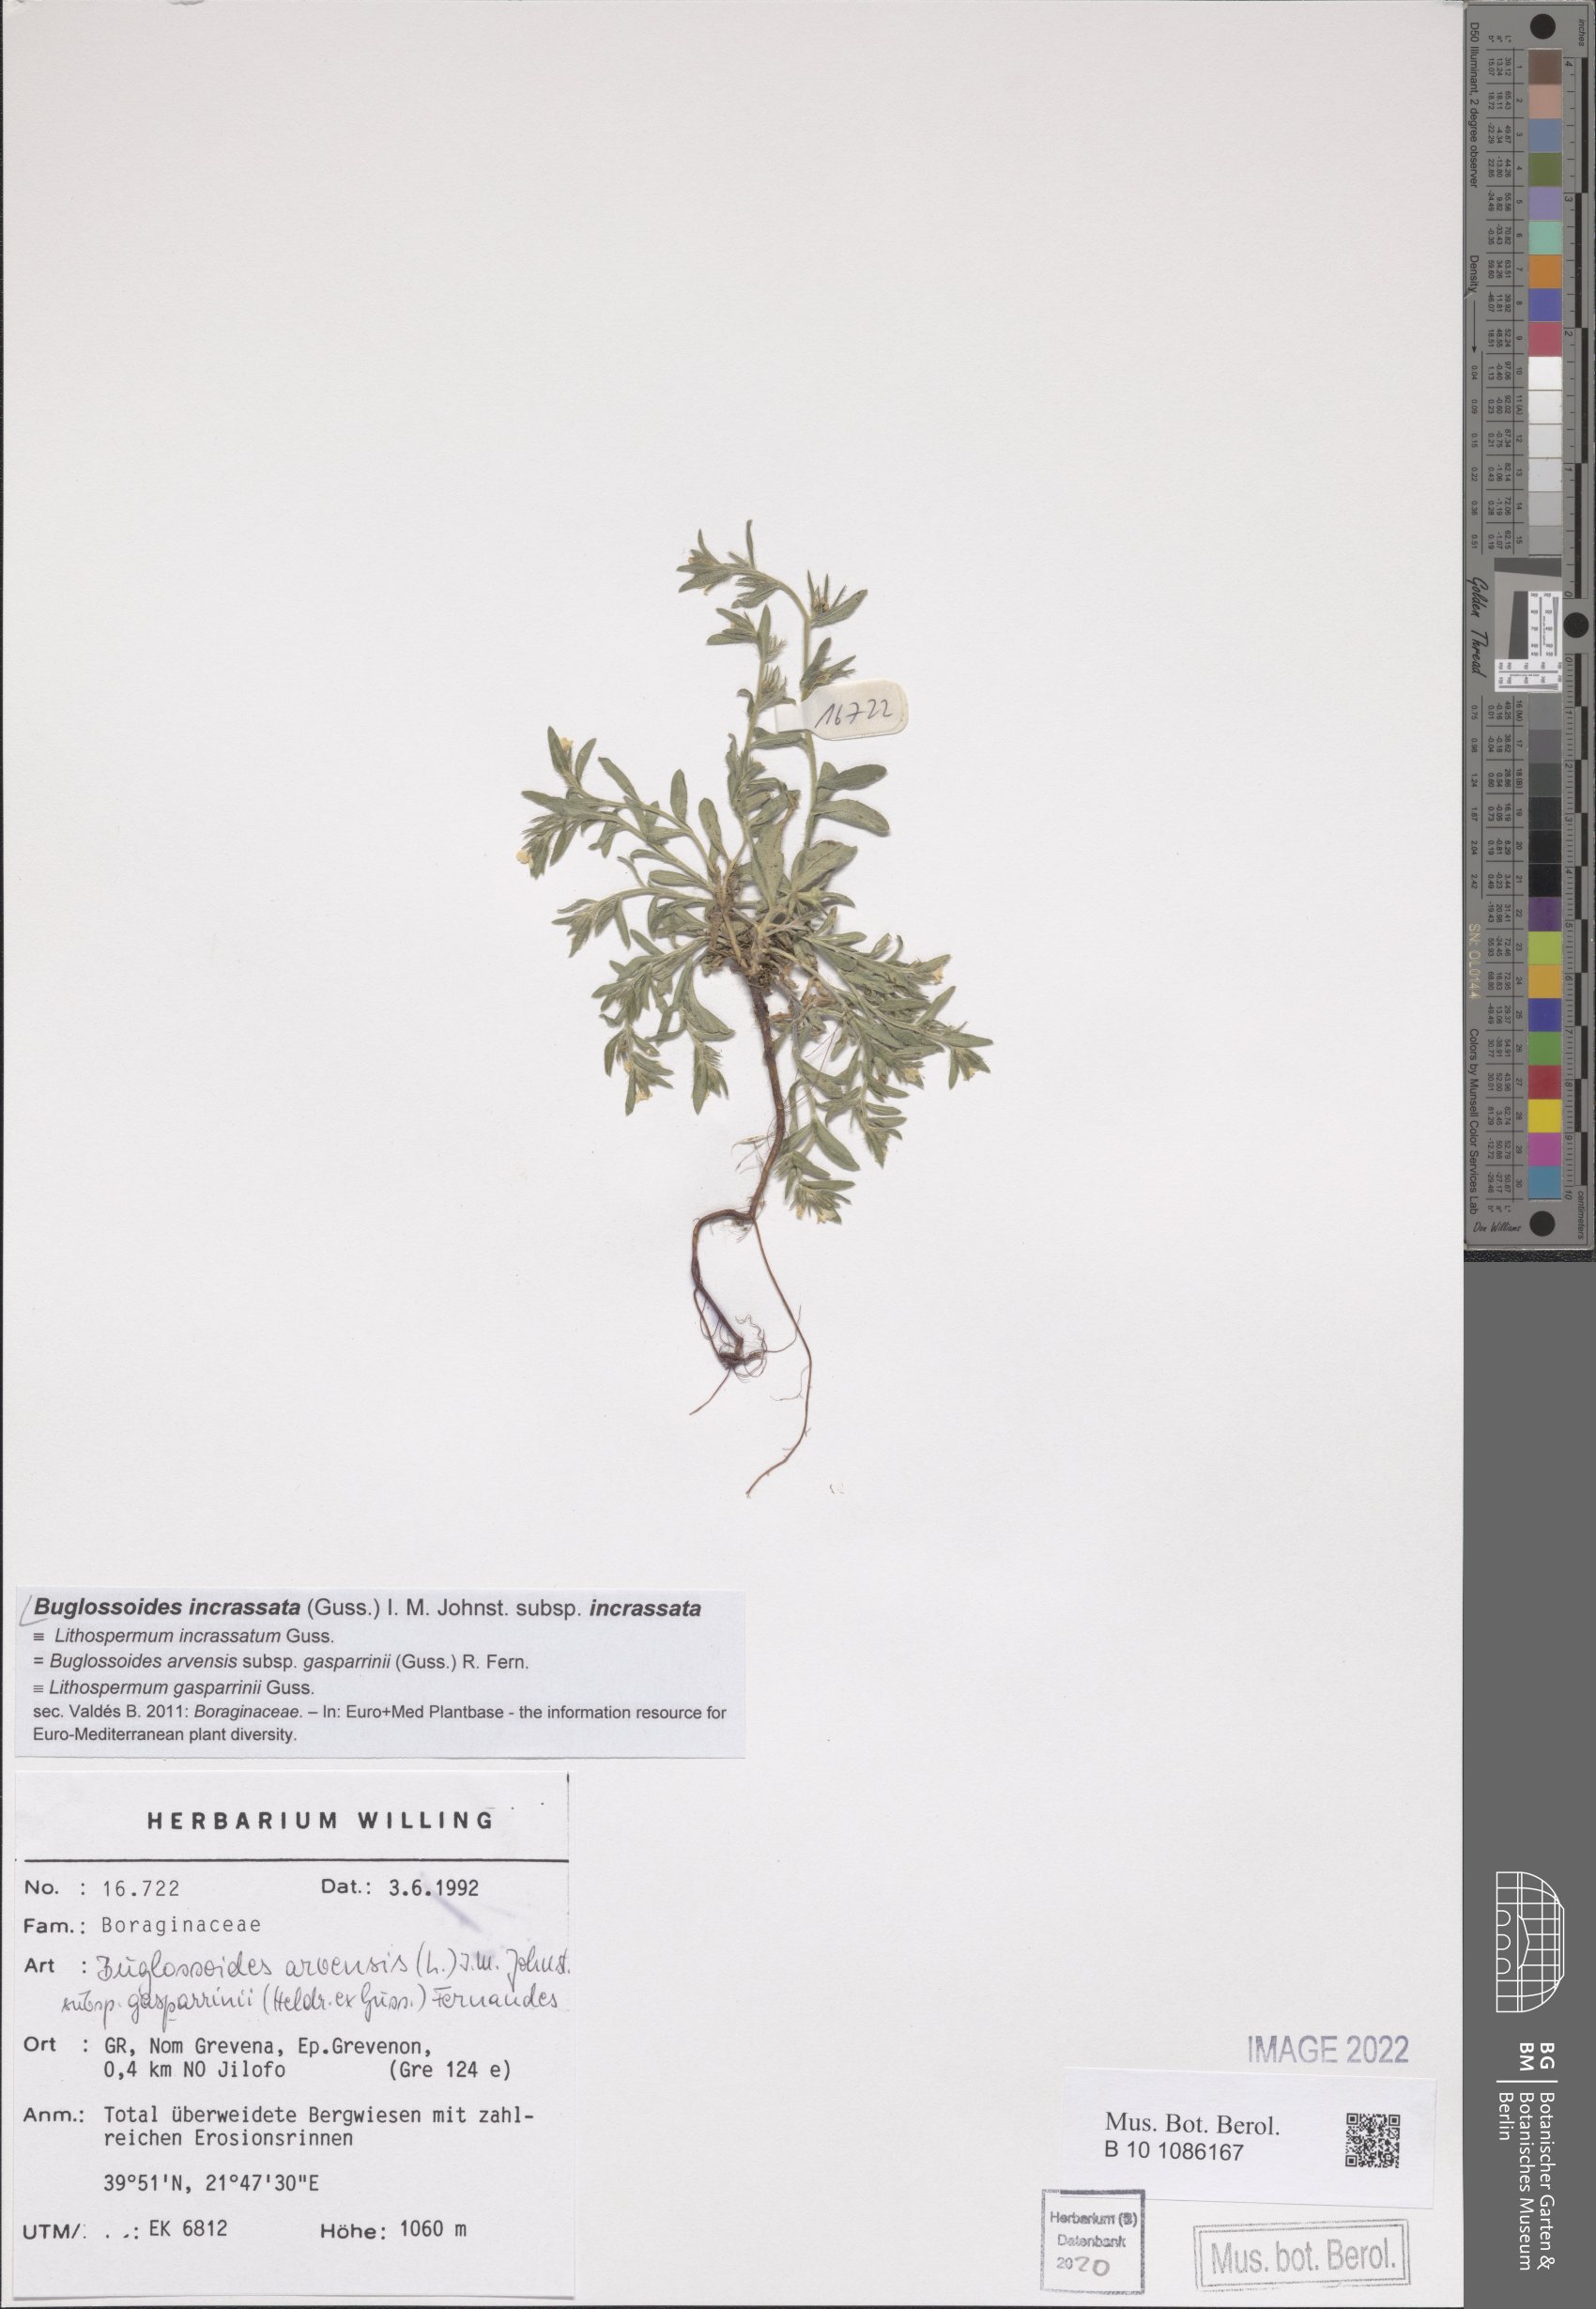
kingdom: Plantae
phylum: Tracheophyta
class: Magnoliopsida
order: Boraginales
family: Boraginaceae
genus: Buglossoides
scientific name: Buglossoides incrassata
